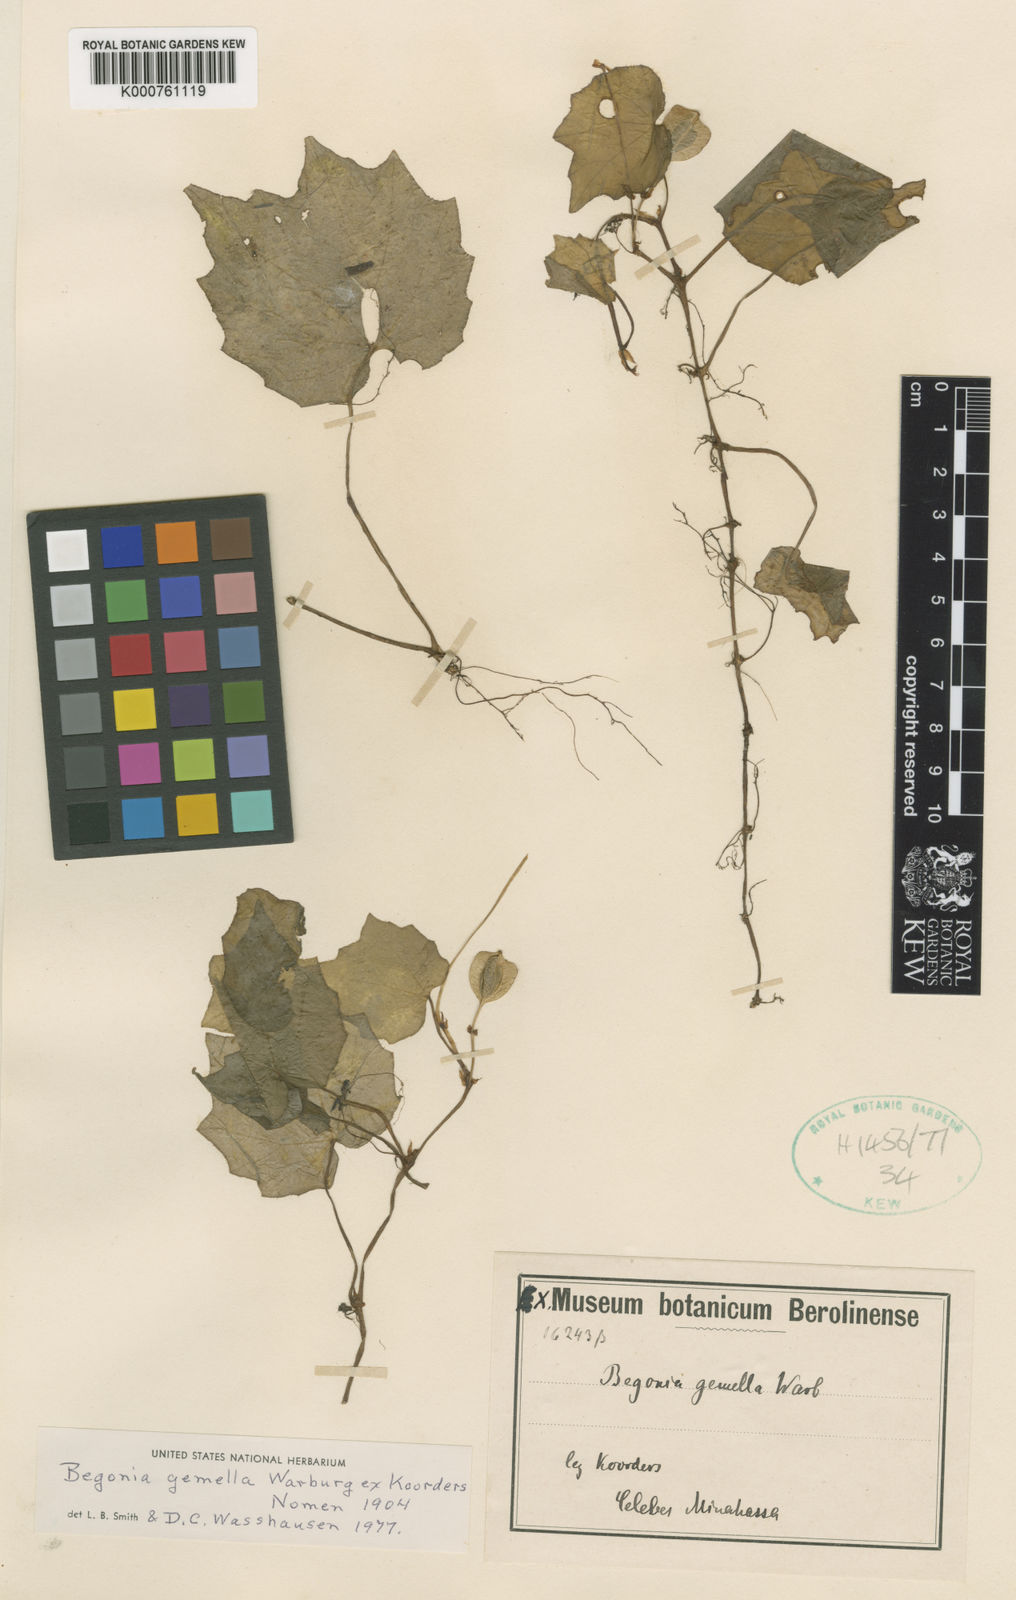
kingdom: Plantae
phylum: Tracheophyta
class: Magnoliopsida
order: Cucurbitales
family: Begoniaceae
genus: Begonia
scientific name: Begonia
